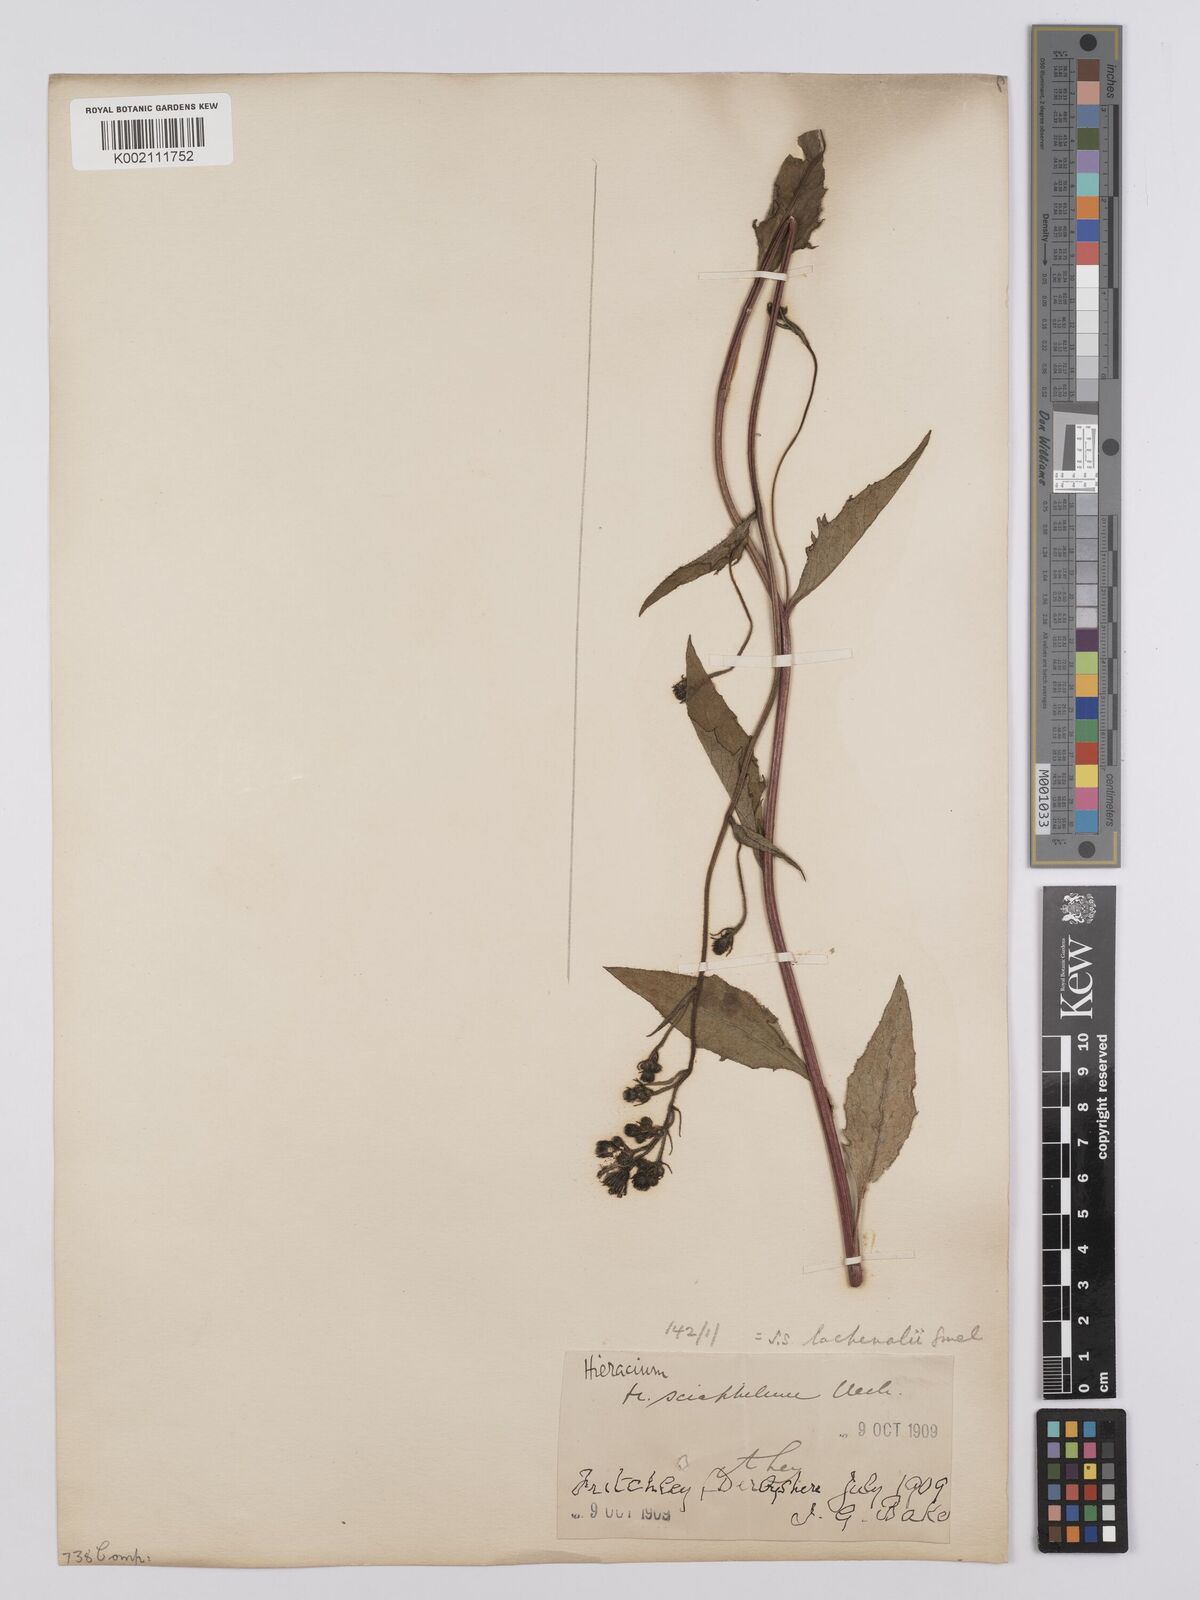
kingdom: Plantae
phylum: Tracheophyta
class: Magnoliopsida
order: Asterales
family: Asteraceae
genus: Hieracium
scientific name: Hieracium lachenalii
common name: Common hawkweed
